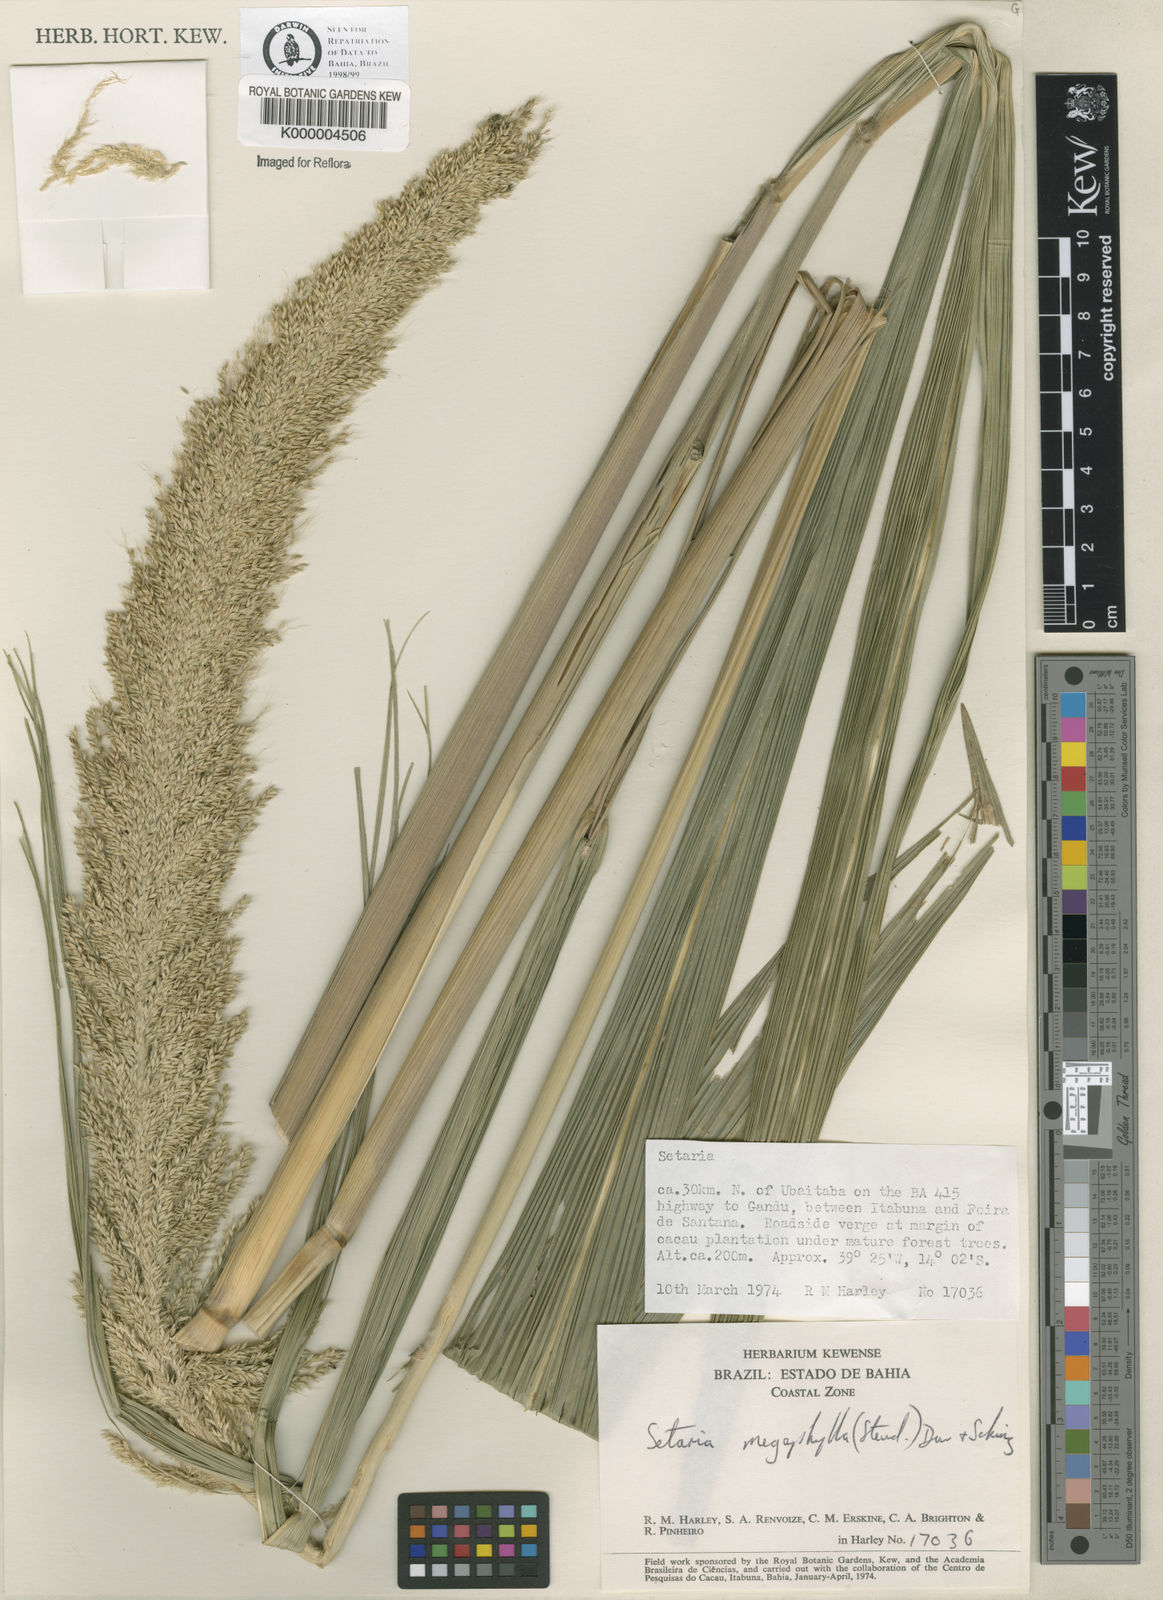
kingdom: Plantae
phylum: Tracheophyta
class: Liliopsida
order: Poales
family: Poaceae
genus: Setaria
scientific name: Setaria megaphylla
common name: Bigleaf bristlegrass
